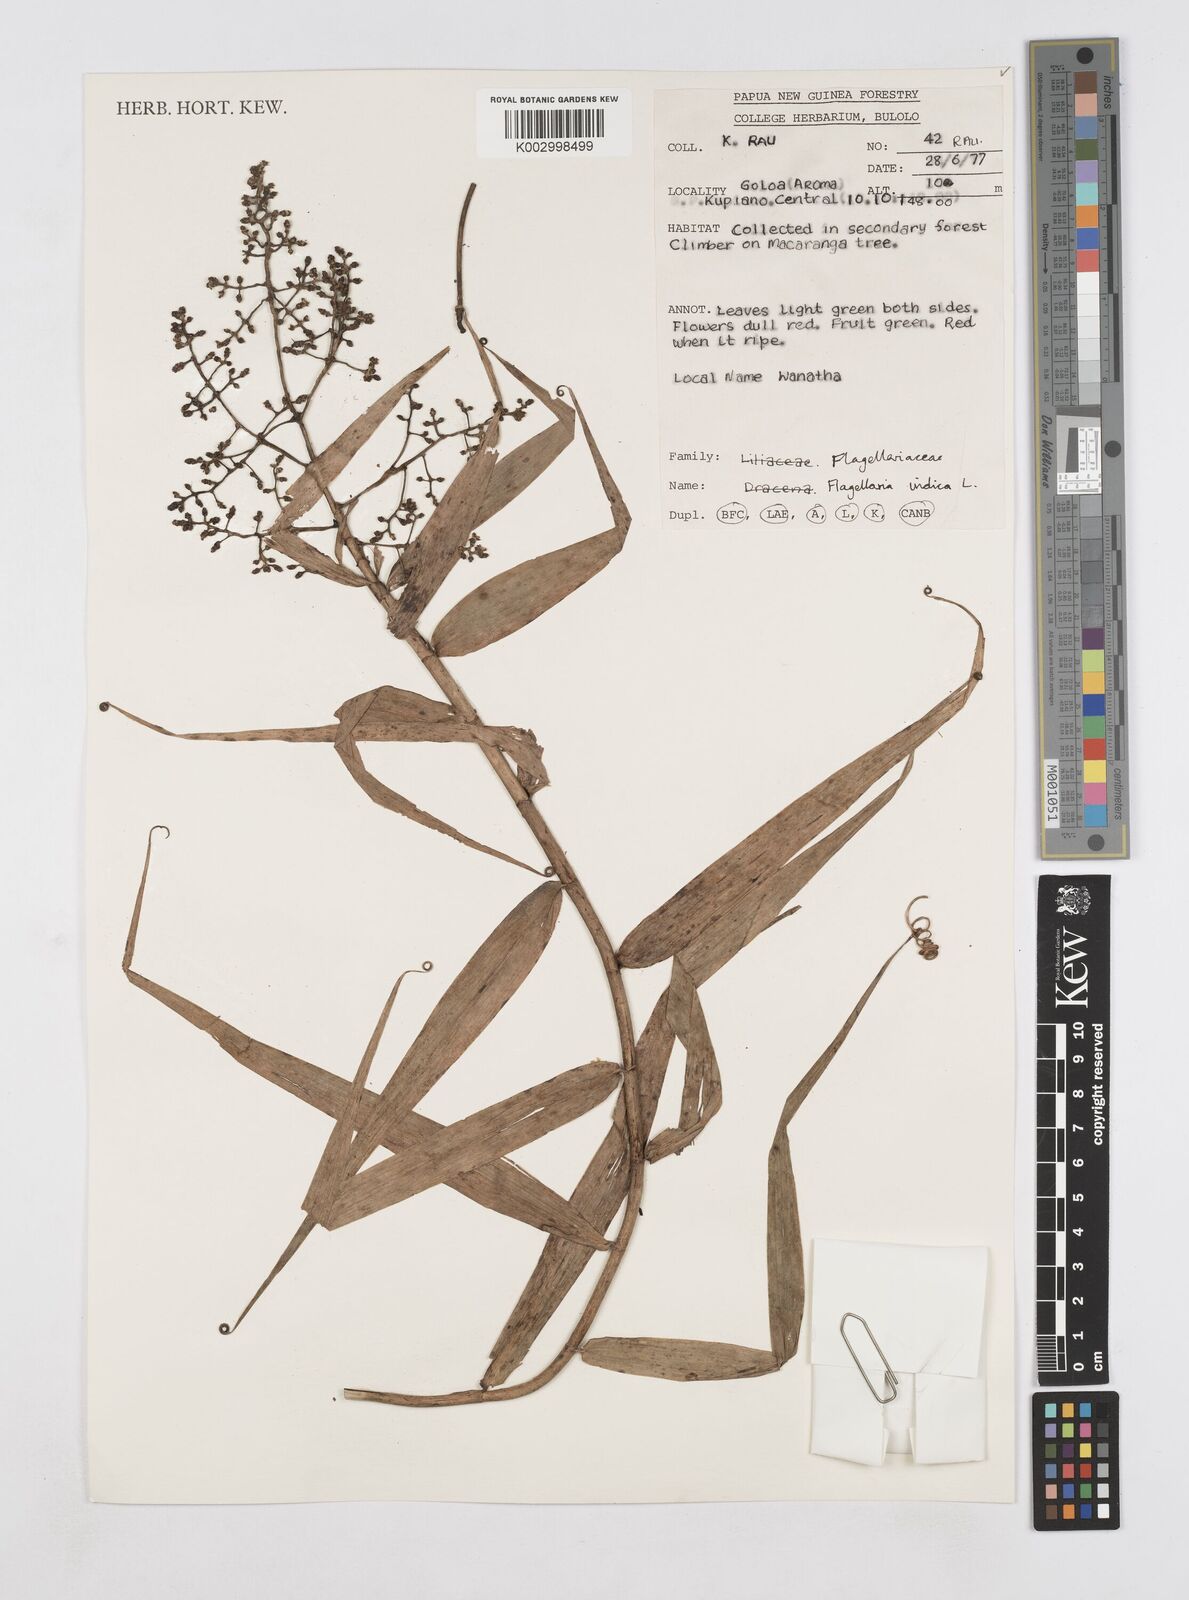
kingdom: Plantae
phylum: Tracheophyta
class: Liliopsida
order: Poales
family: Flagellariaceae
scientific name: Flagellariaceae
